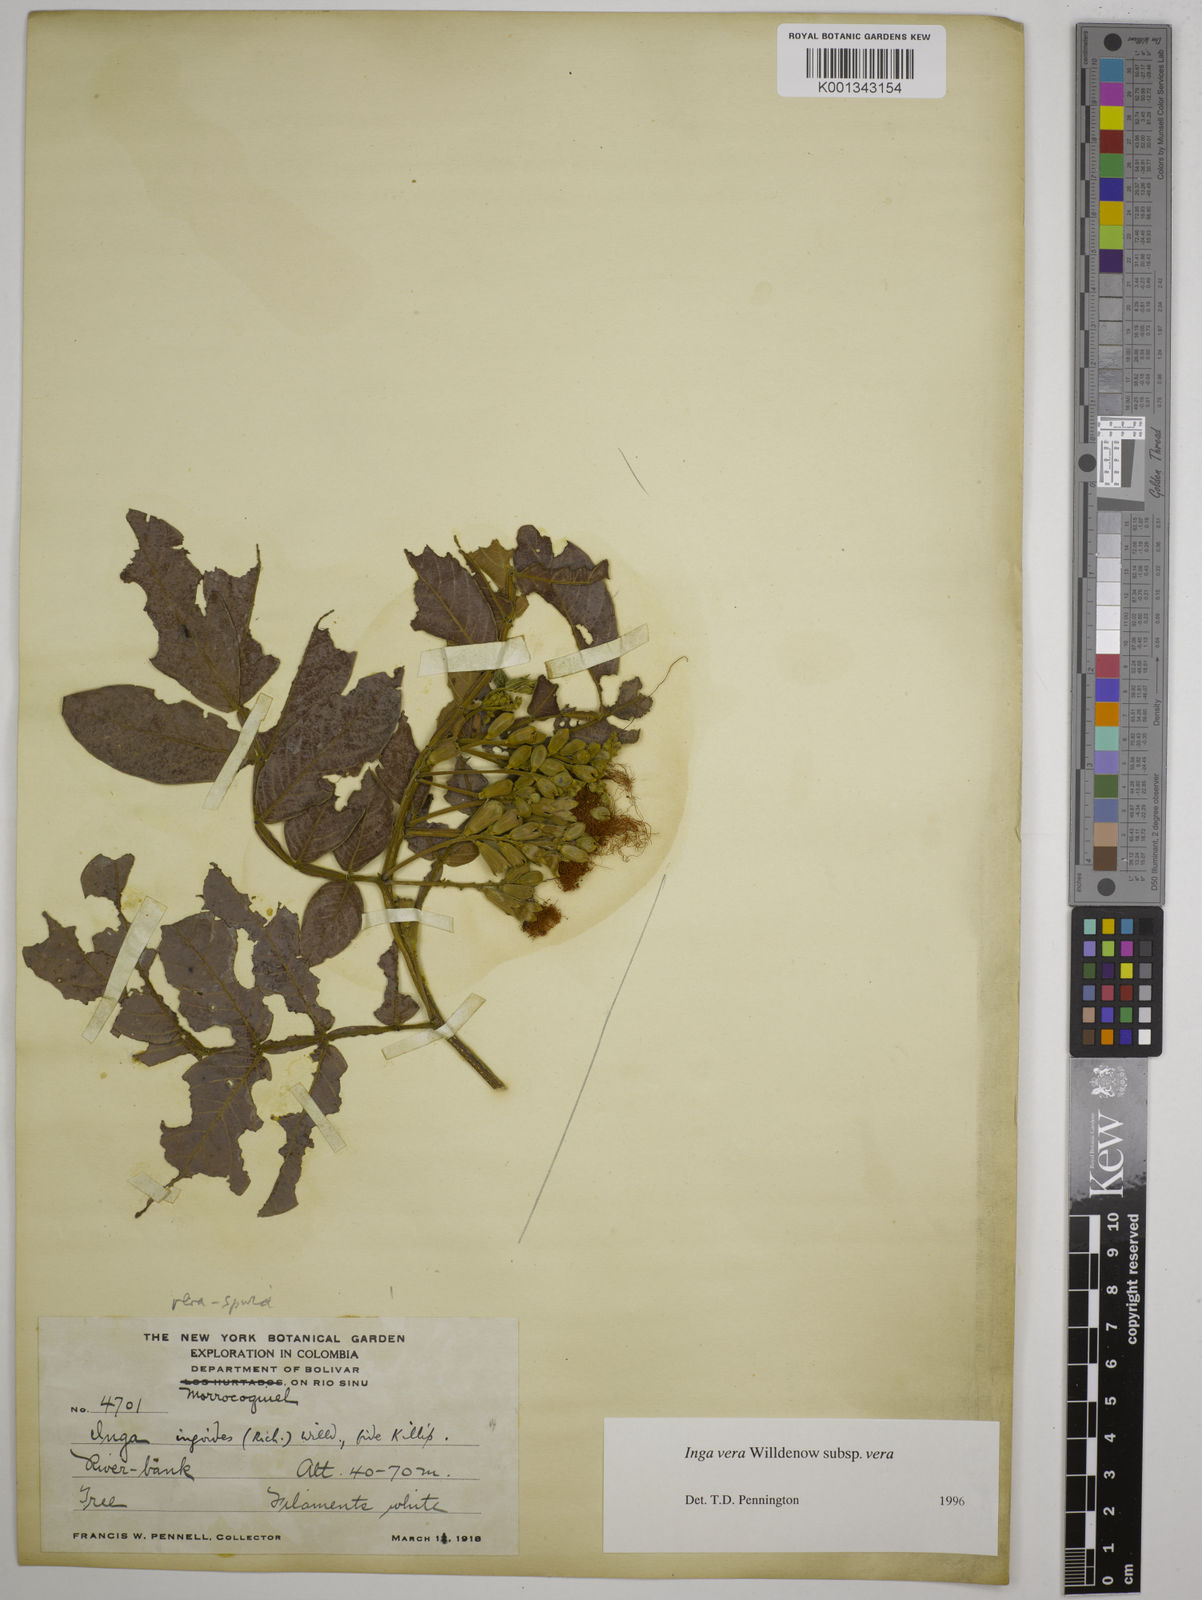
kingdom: Plantae
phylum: Tracheophyta
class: Magnoliopsida
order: Fabales
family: Fabaceae
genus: Inga
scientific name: Inga vera
